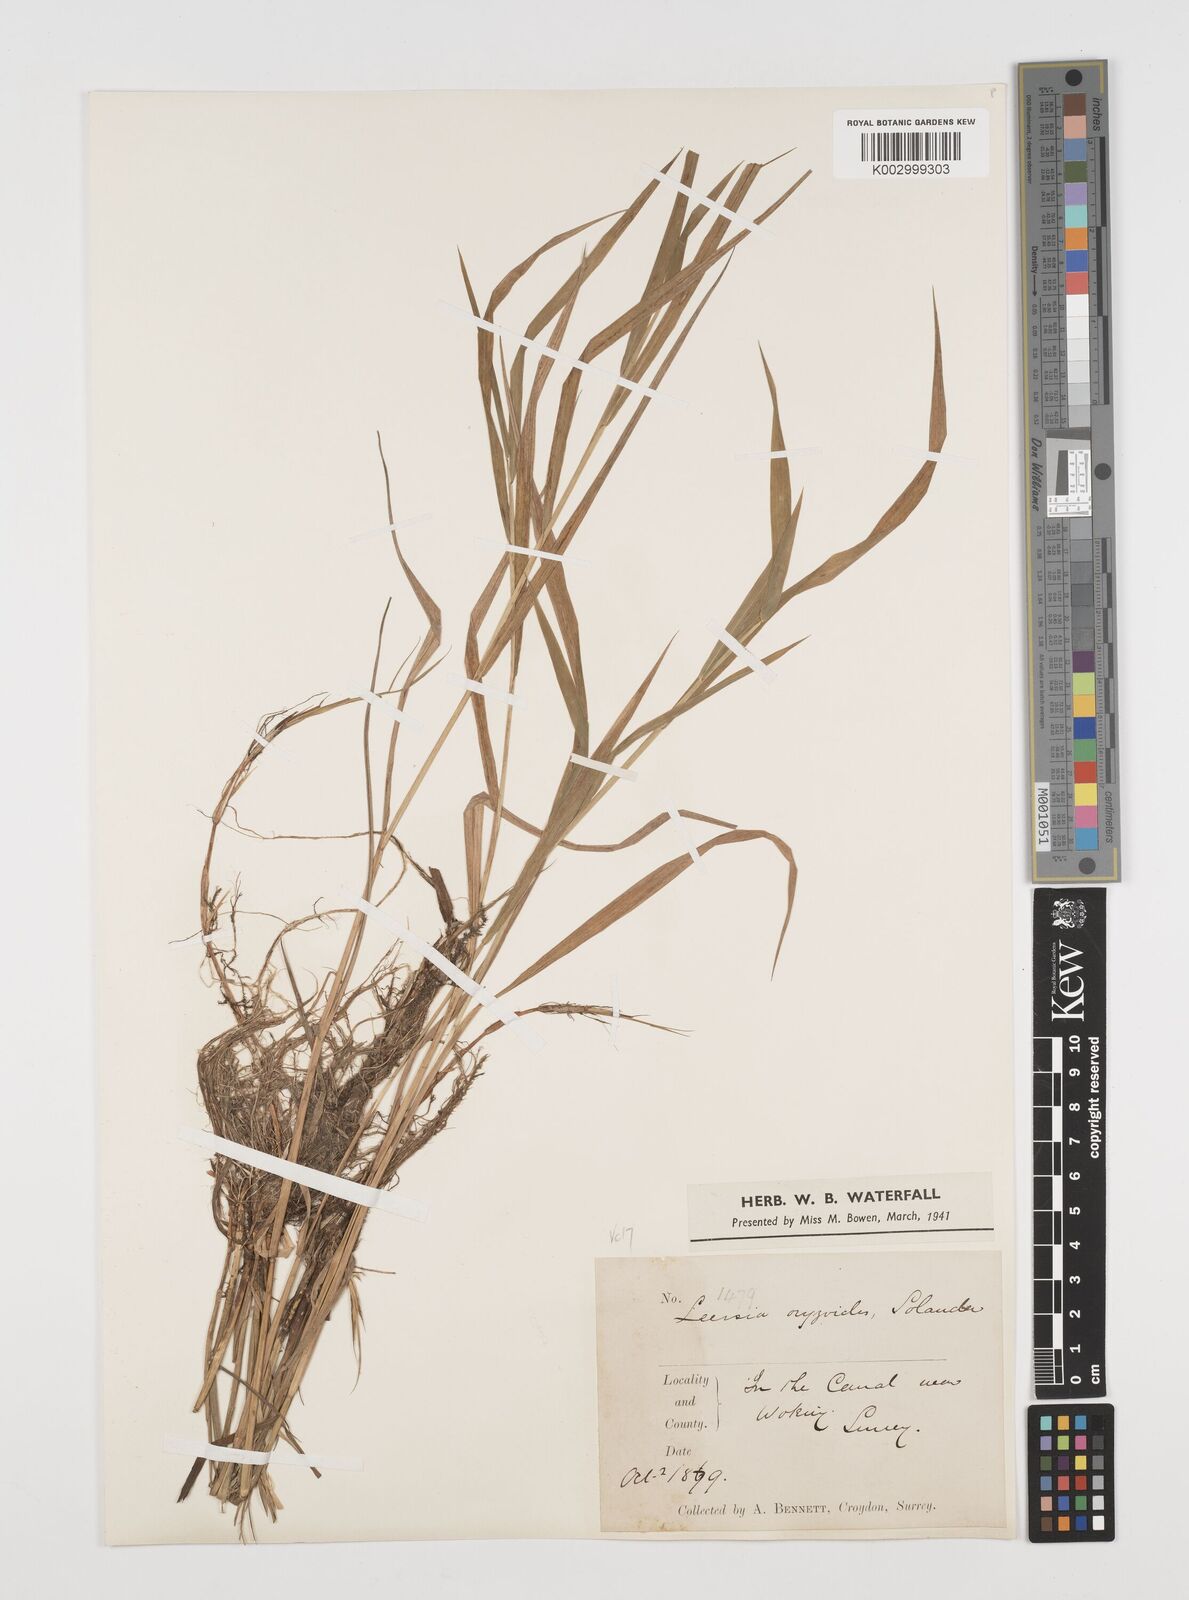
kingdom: Plantae
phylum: Tracheophyta
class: Liliopsida
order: Poales
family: Poaceae
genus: Leersia
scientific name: Leersia oryzoides
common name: Cut-grass
